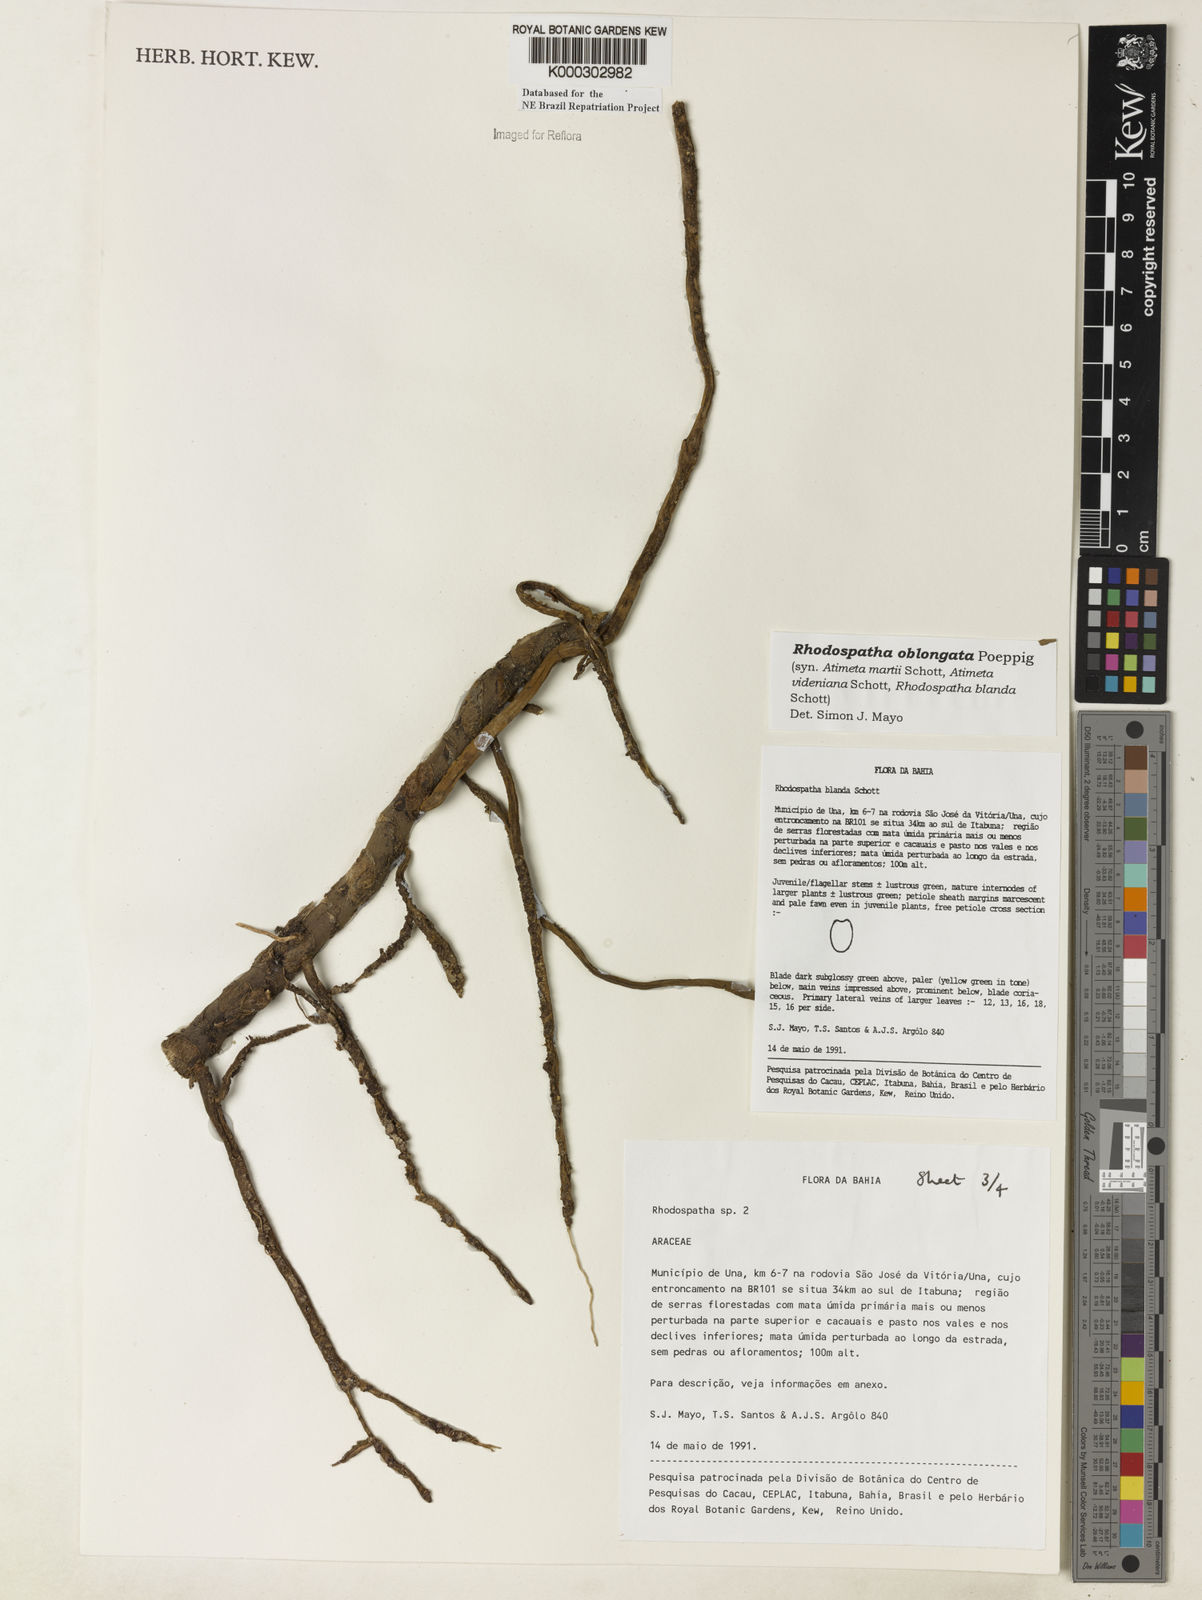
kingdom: Plantae
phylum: Tracheophyta
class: Liliopsida
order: Alismatales
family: Araceae
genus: Rhodospatha
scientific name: Rhodospatha oblongata
